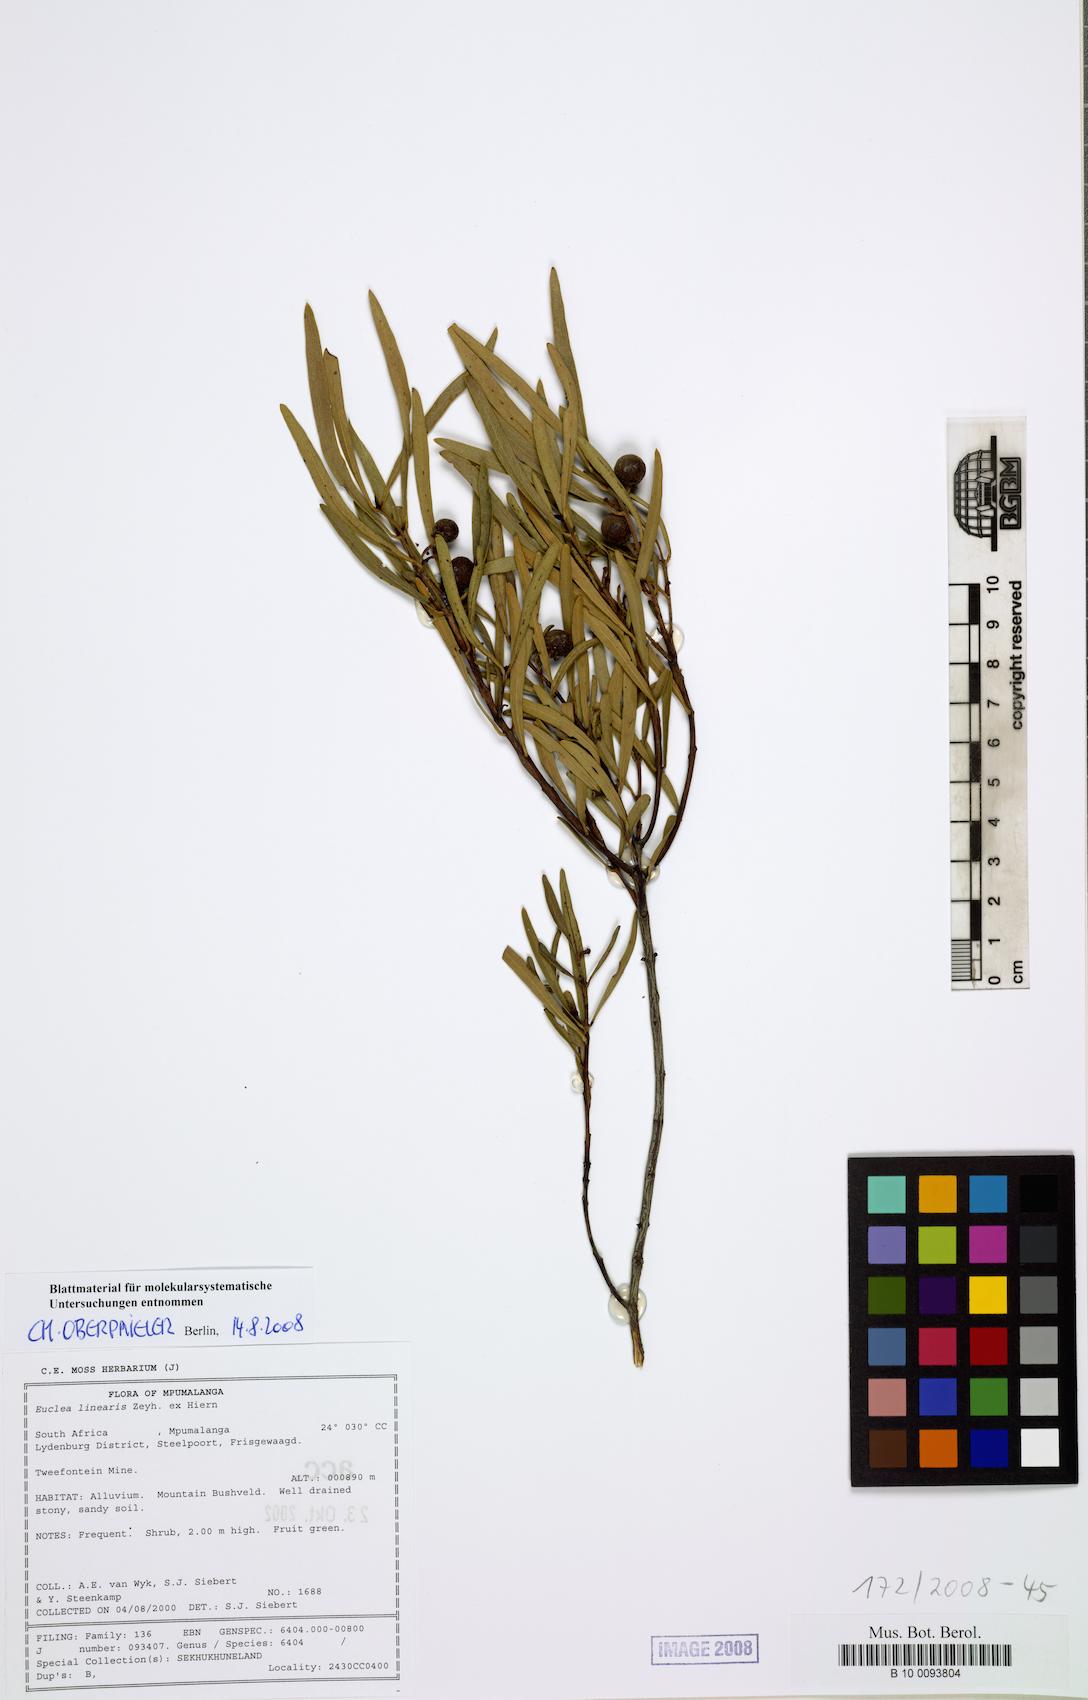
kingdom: Plantae
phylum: Tracheophyta
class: Magnoliopsida
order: Ericales
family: Ebenaceae
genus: Euclea
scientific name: Euclea linearis
